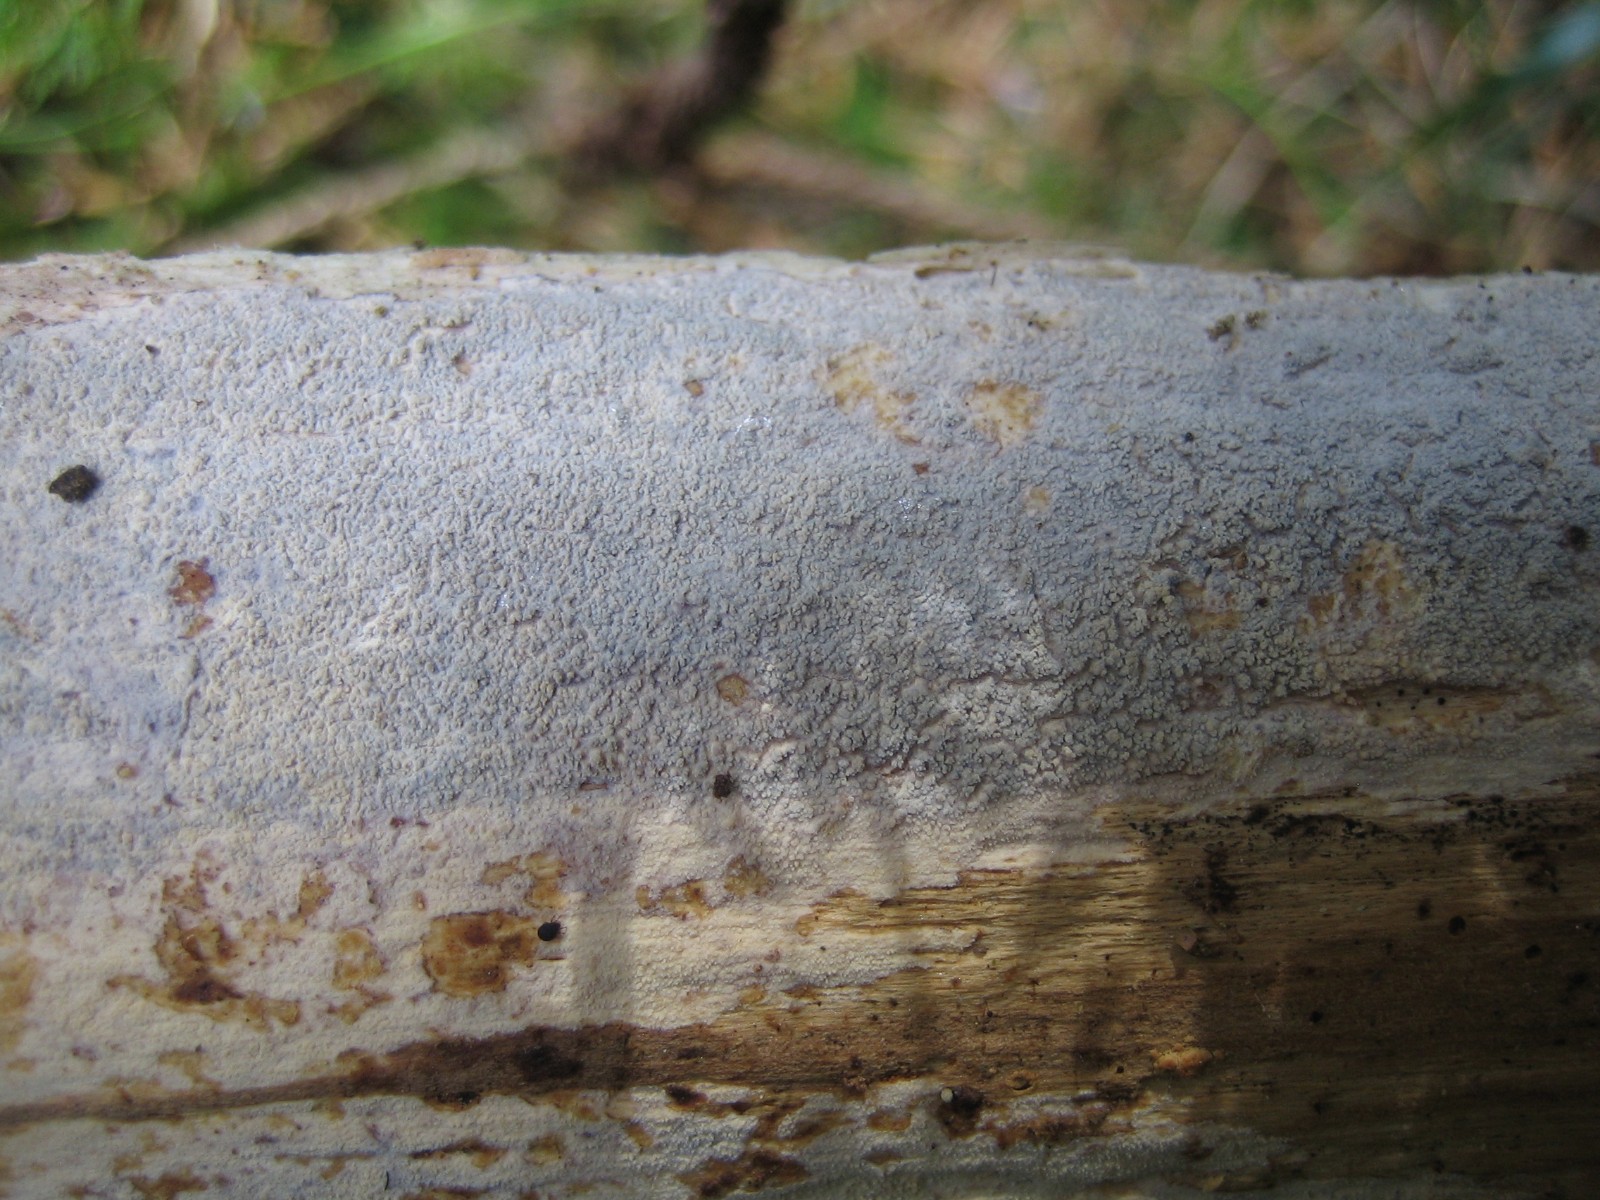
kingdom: Fungi
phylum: Basidiomycota
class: Agaricomycetes
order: Hymenochaetales
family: Repetobasidiaceae
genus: Skvortzovia
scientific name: Skvortzovia furfuracea
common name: tynd vokstand
